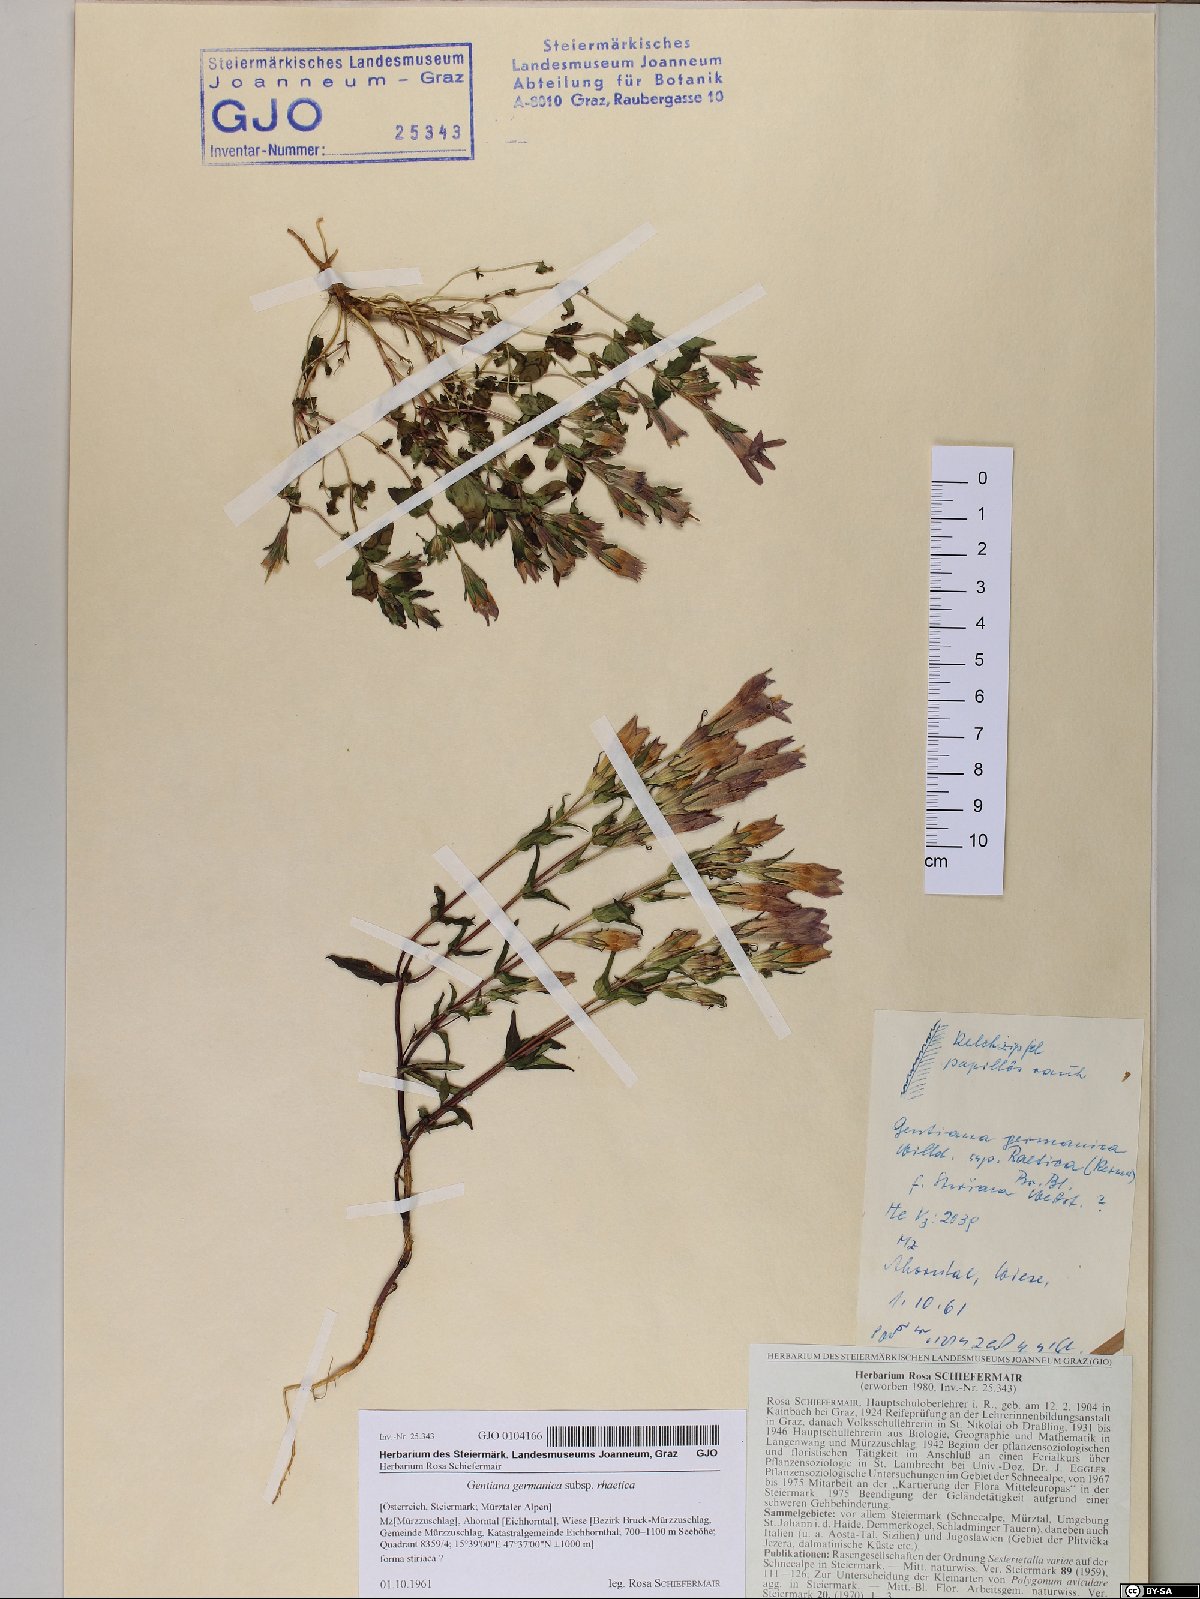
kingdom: Plantae
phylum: Tracheophyta
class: Magnoliopsida
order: Gentianales
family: Gentianaceae
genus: Gentianella
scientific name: Gentianella rhaetica
